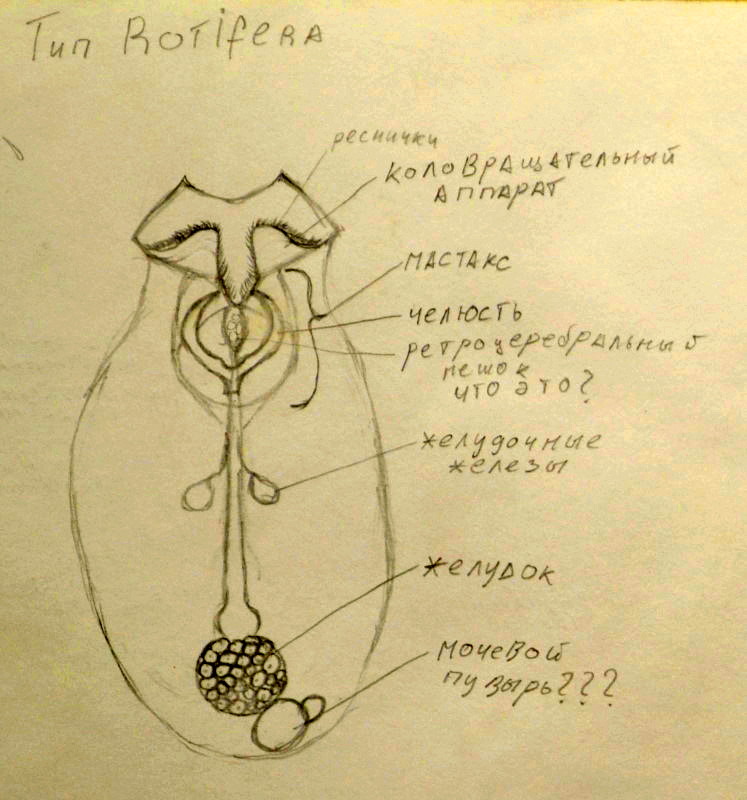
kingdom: Animalia
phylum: Rotifera
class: Eurotatoria
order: Ploima
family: Asplanchnidae
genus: Asplanchna
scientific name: Asplanchna priodonta
